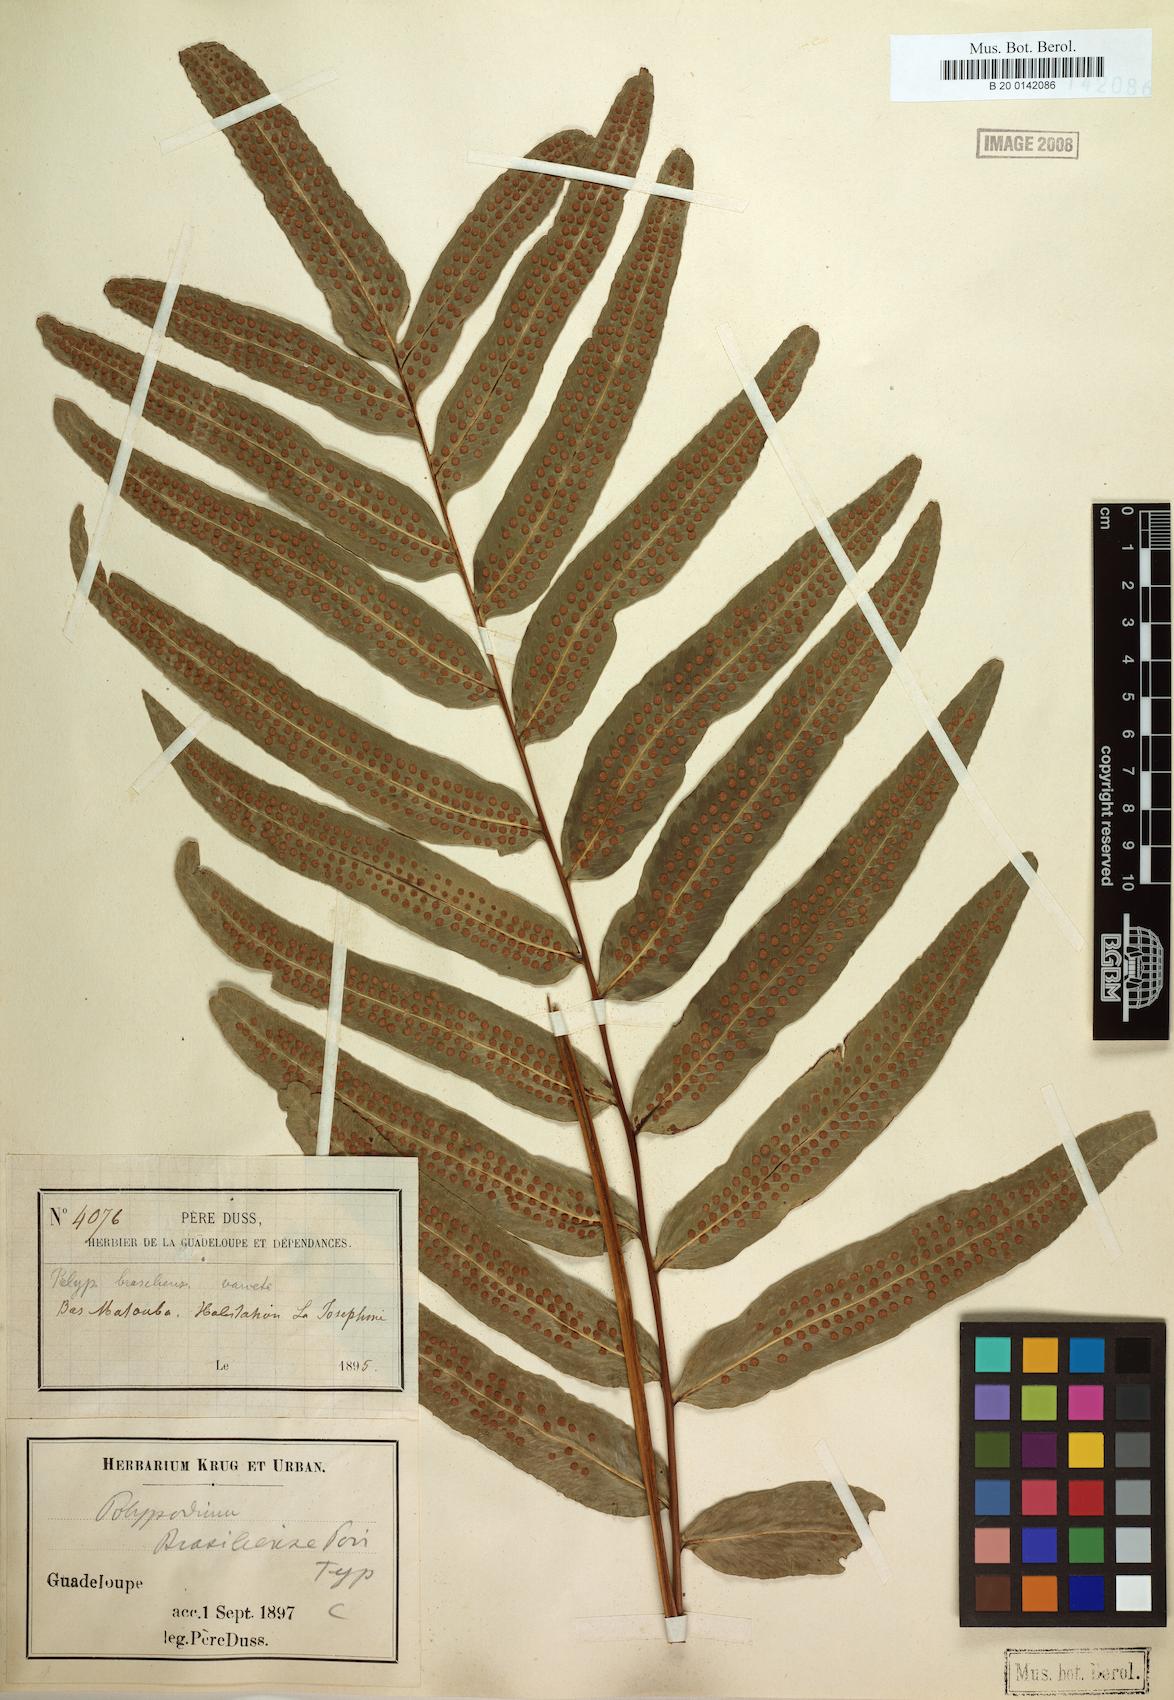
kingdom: Plantae
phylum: Tracheophyta
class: Polypodiopsida
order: Polypodiales
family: Polypodiaceae
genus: Serpocaulon
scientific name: Serpocaulon triseriale
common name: Angle-vein fern
